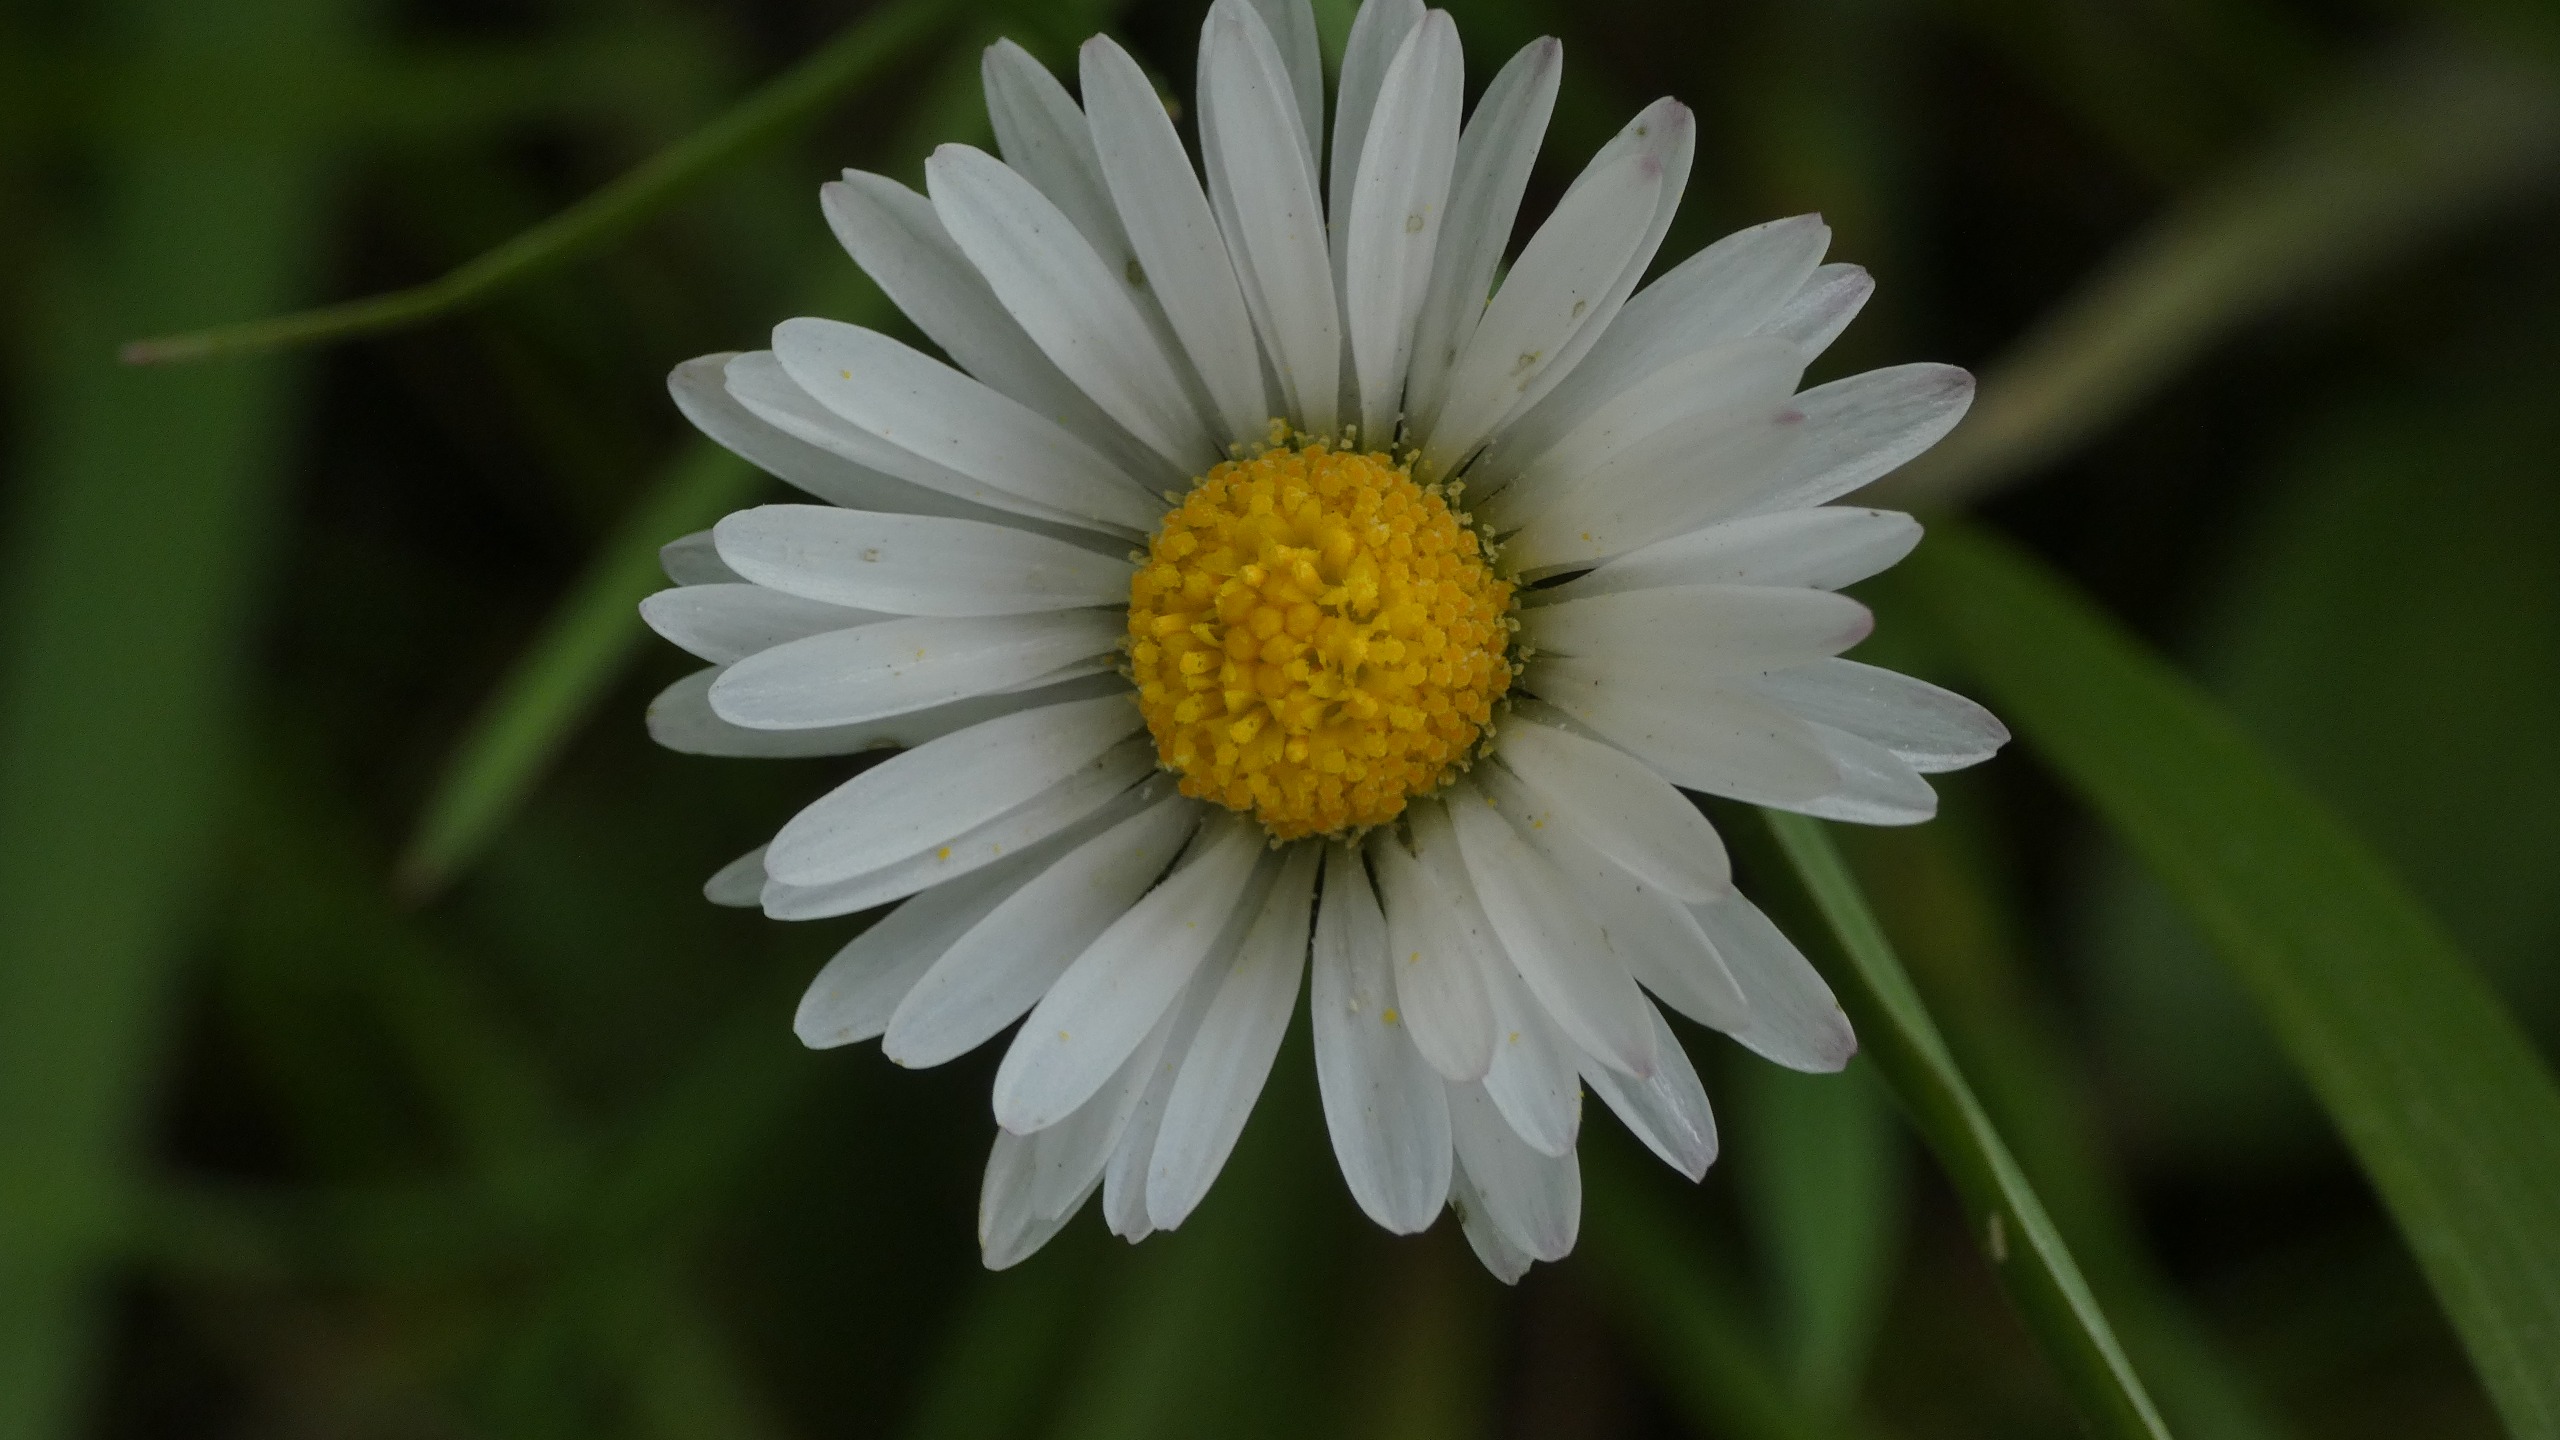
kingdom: Plantae
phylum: Tracheophyta
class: Magnoliopsida
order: Asterales
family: Asteraceae
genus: Bellis
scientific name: Bellis perennis
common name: Tusindfryd
